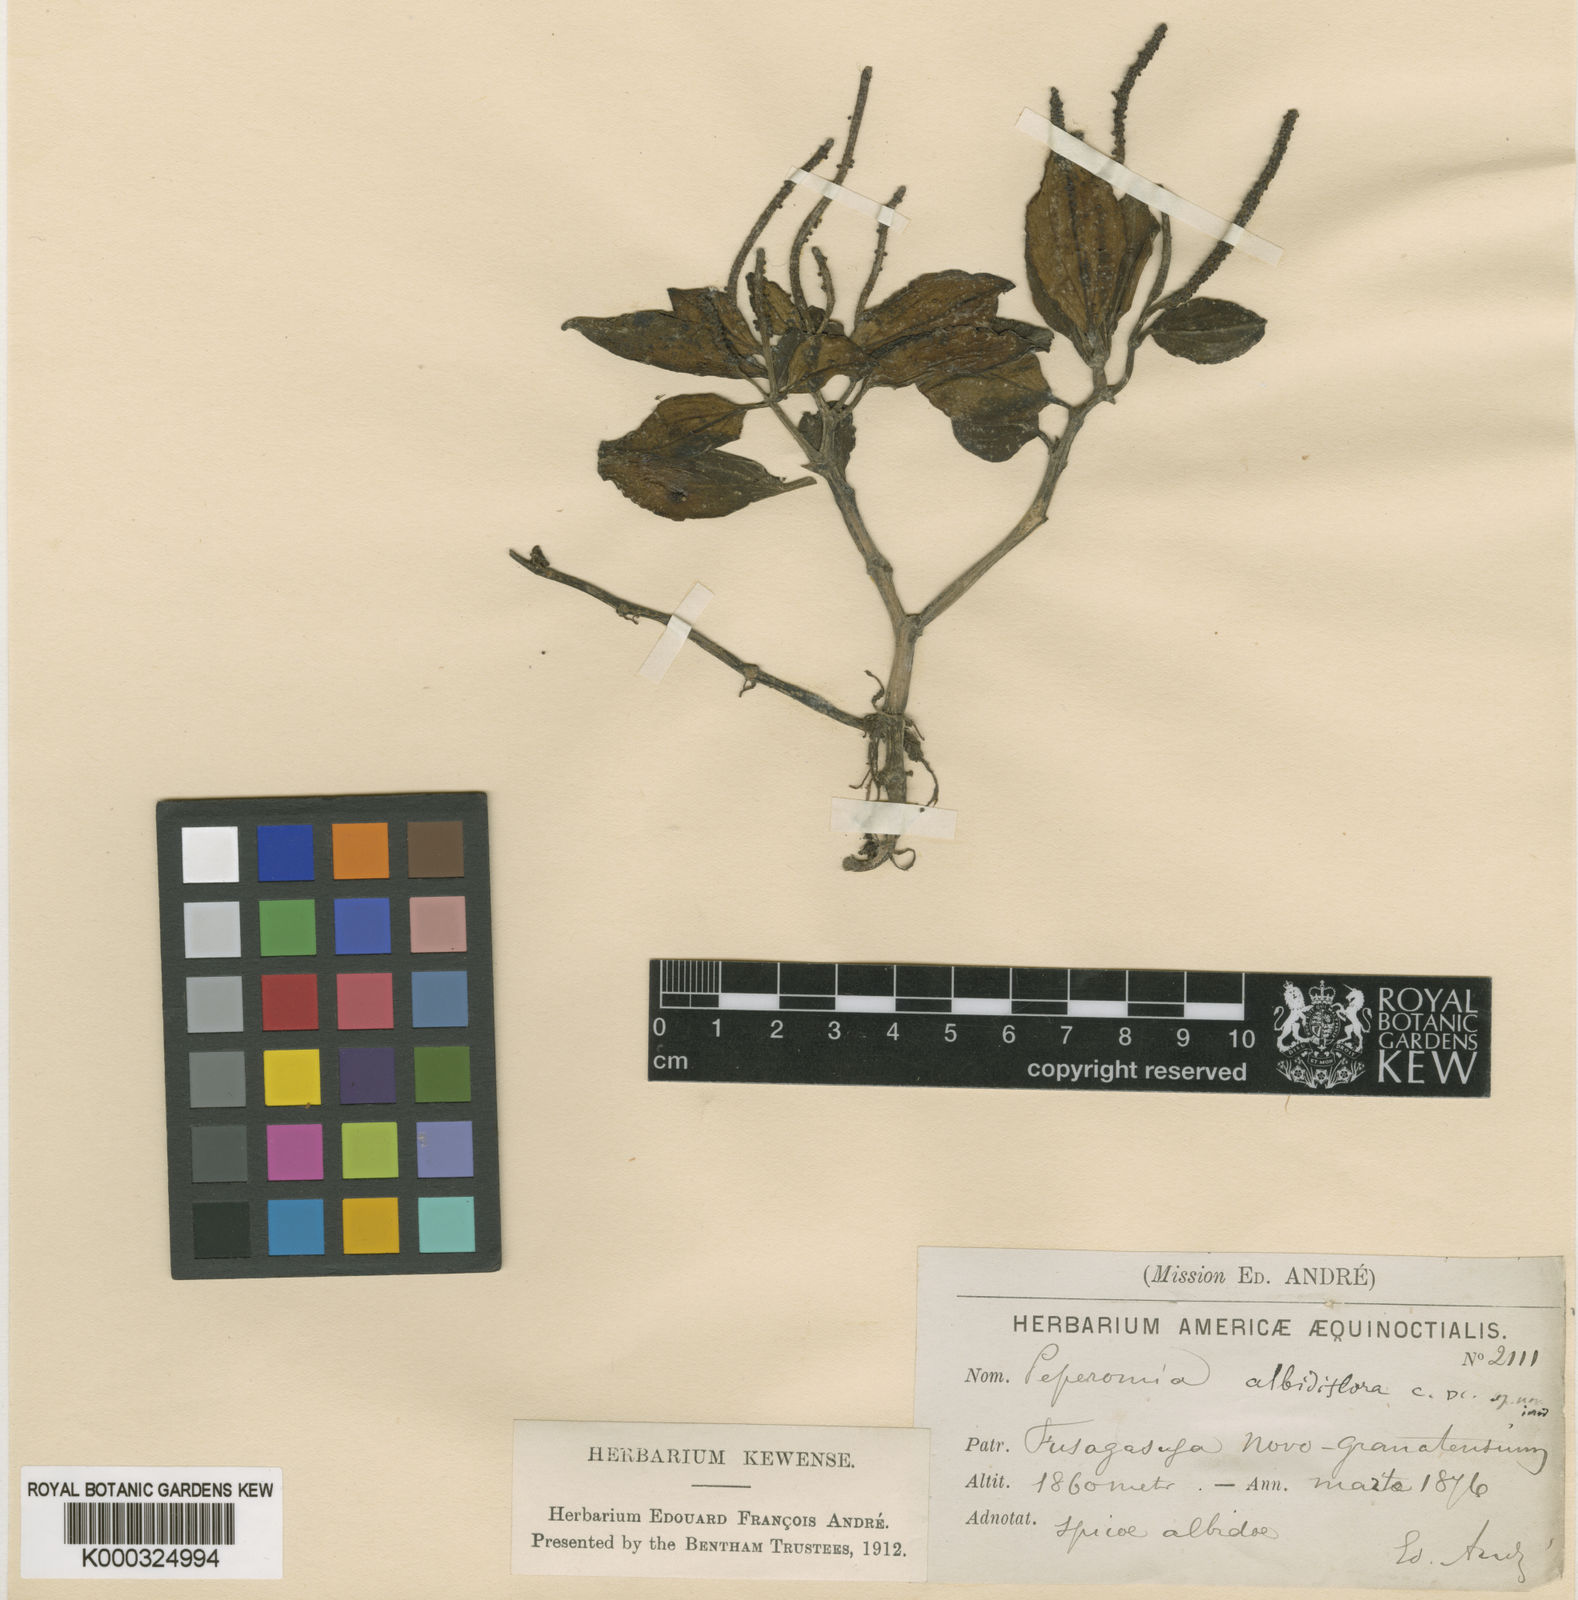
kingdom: Plantae
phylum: Tracheophyta
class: Magnoliopsida
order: Piperales
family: Piperaceae
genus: Peperomia
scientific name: Peperomia albidiflora
